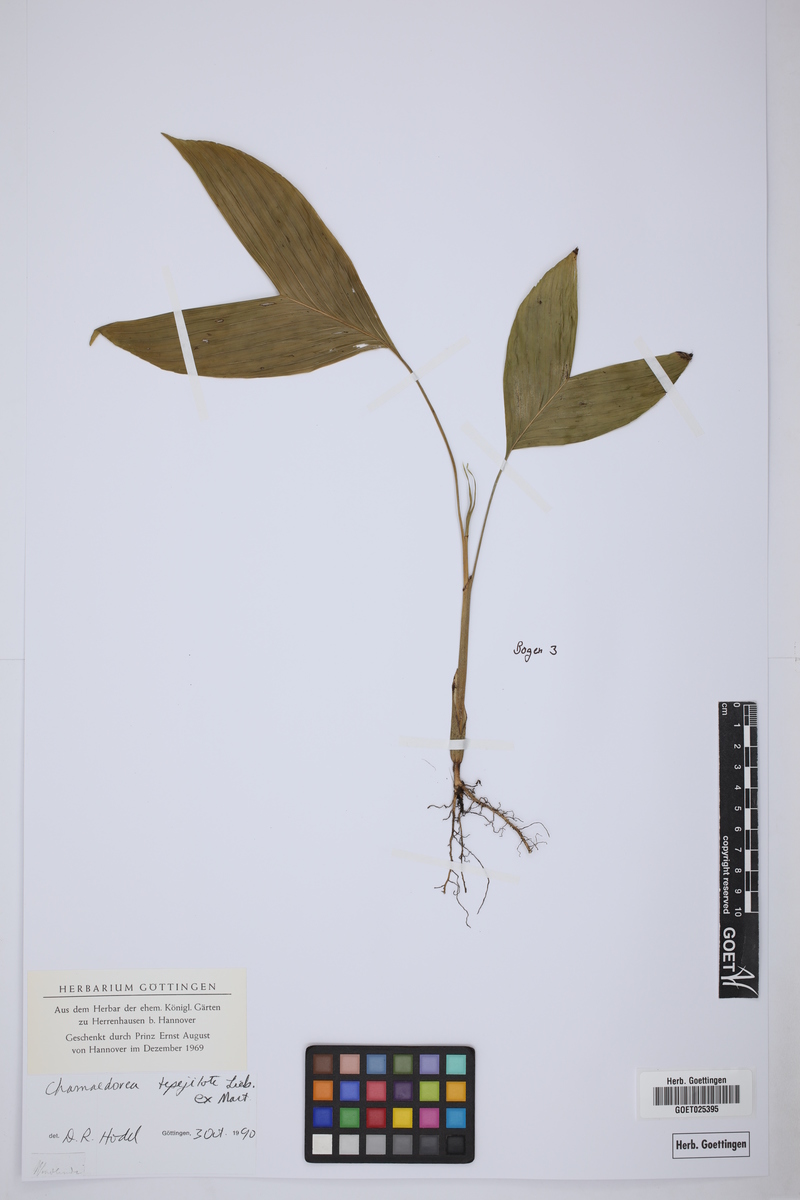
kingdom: Plantae
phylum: Tracheophyta
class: Liliopsida
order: Arecales
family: Arecaceae
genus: Chamaedorea
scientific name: Chamaedorea tepejilote
